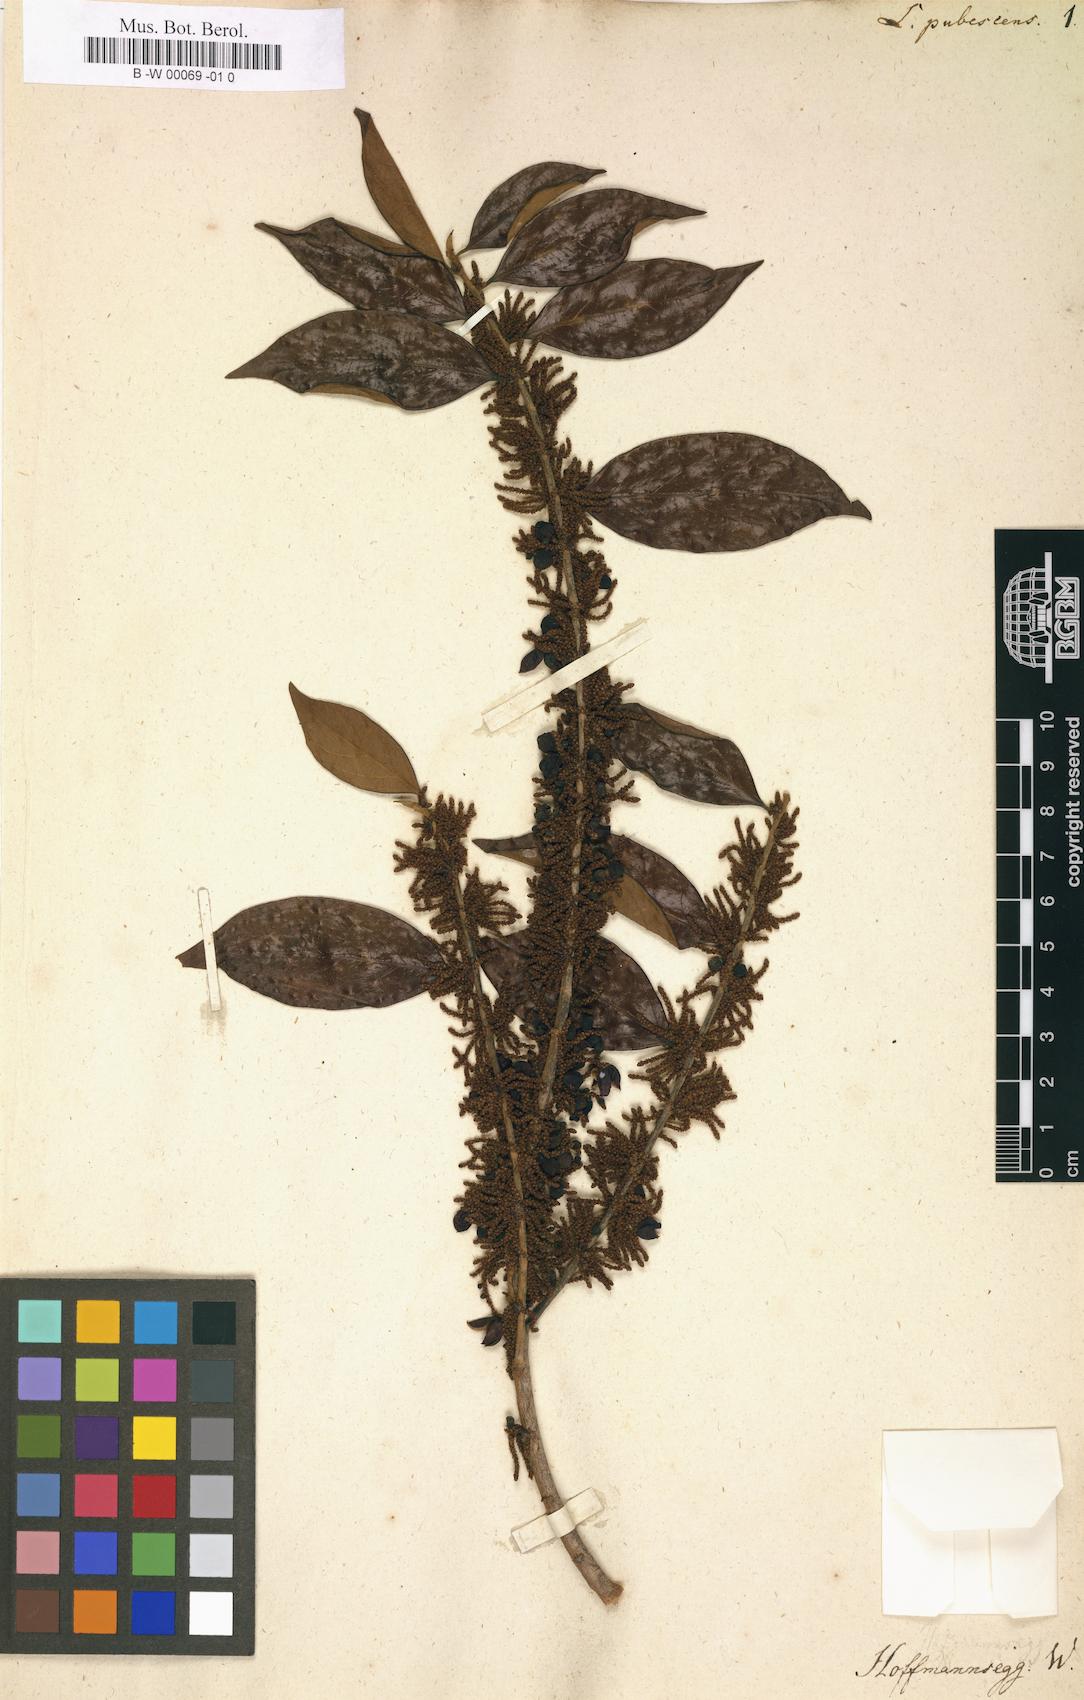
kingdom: Plantae
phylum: Tracheophyta
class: Magnoliopsida
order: Malpighiales
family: Lacistemataceae
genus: Lacistema
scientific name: Lacistema pubescens
